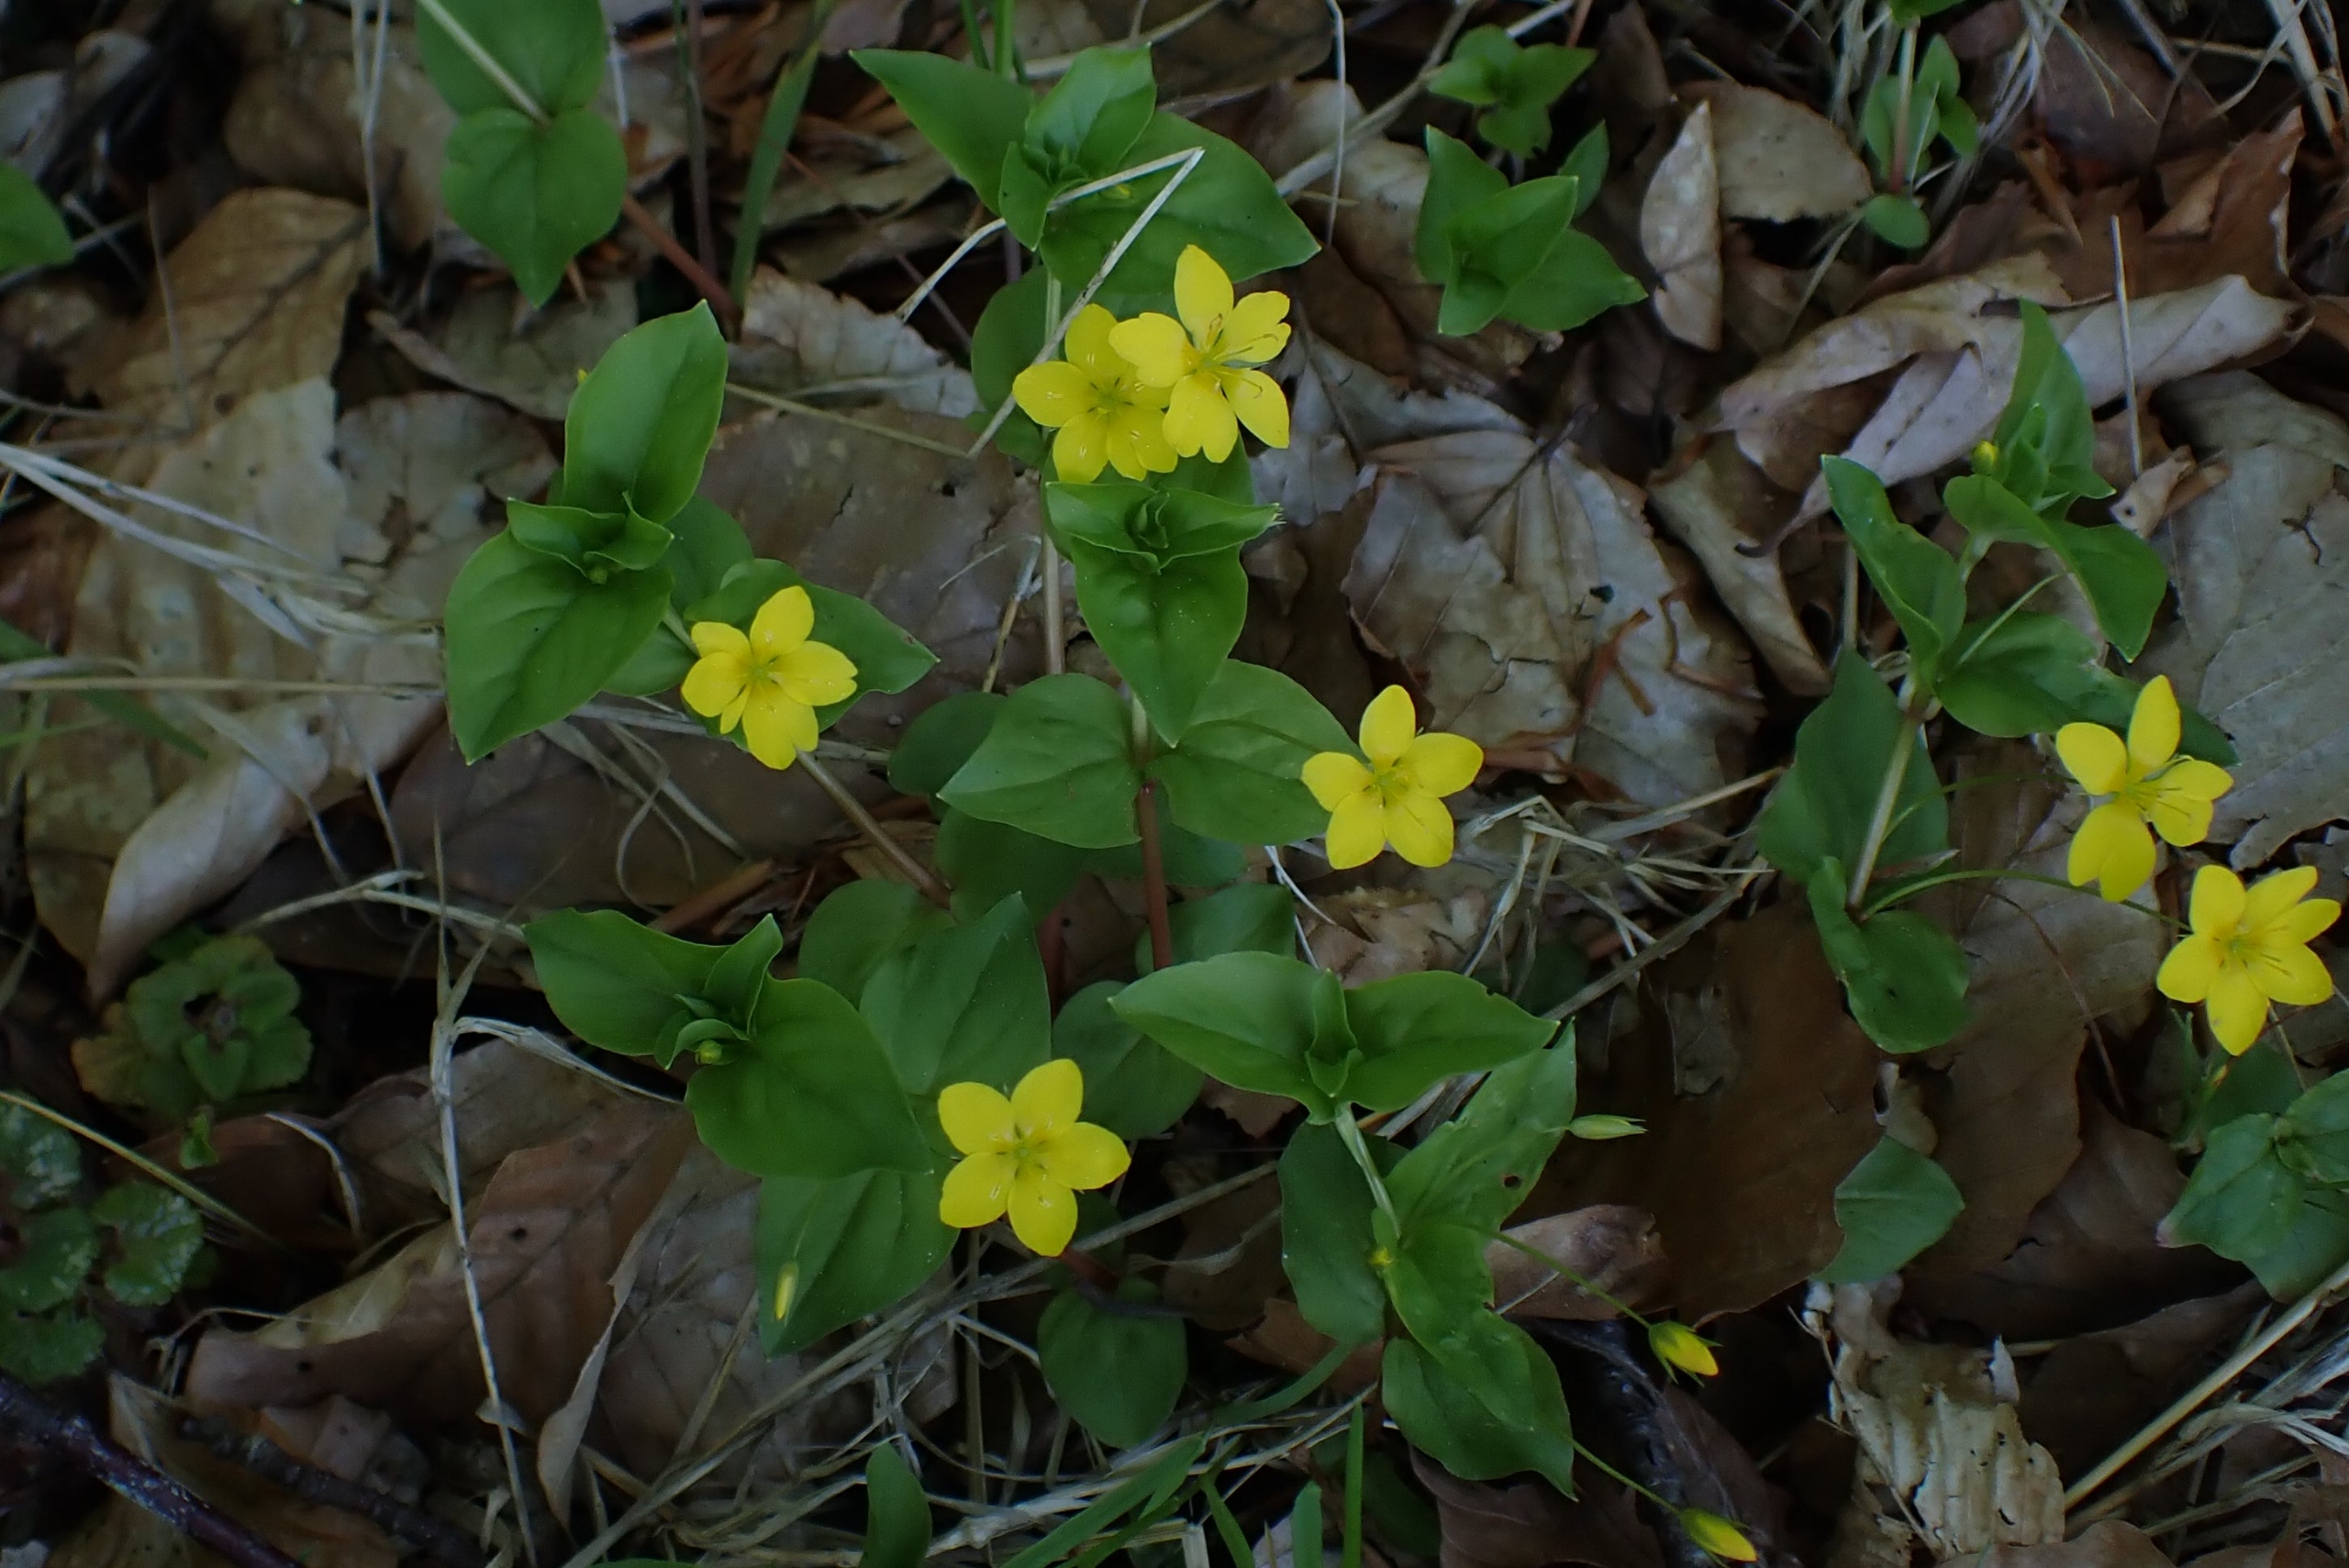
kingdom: Plantae
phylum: Tracheophyta
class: Magnoliopsida
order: Ericales
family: Primulaceae
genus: Lysimachia
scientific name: Lysimachia nemorum
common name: Lund-fredløs
